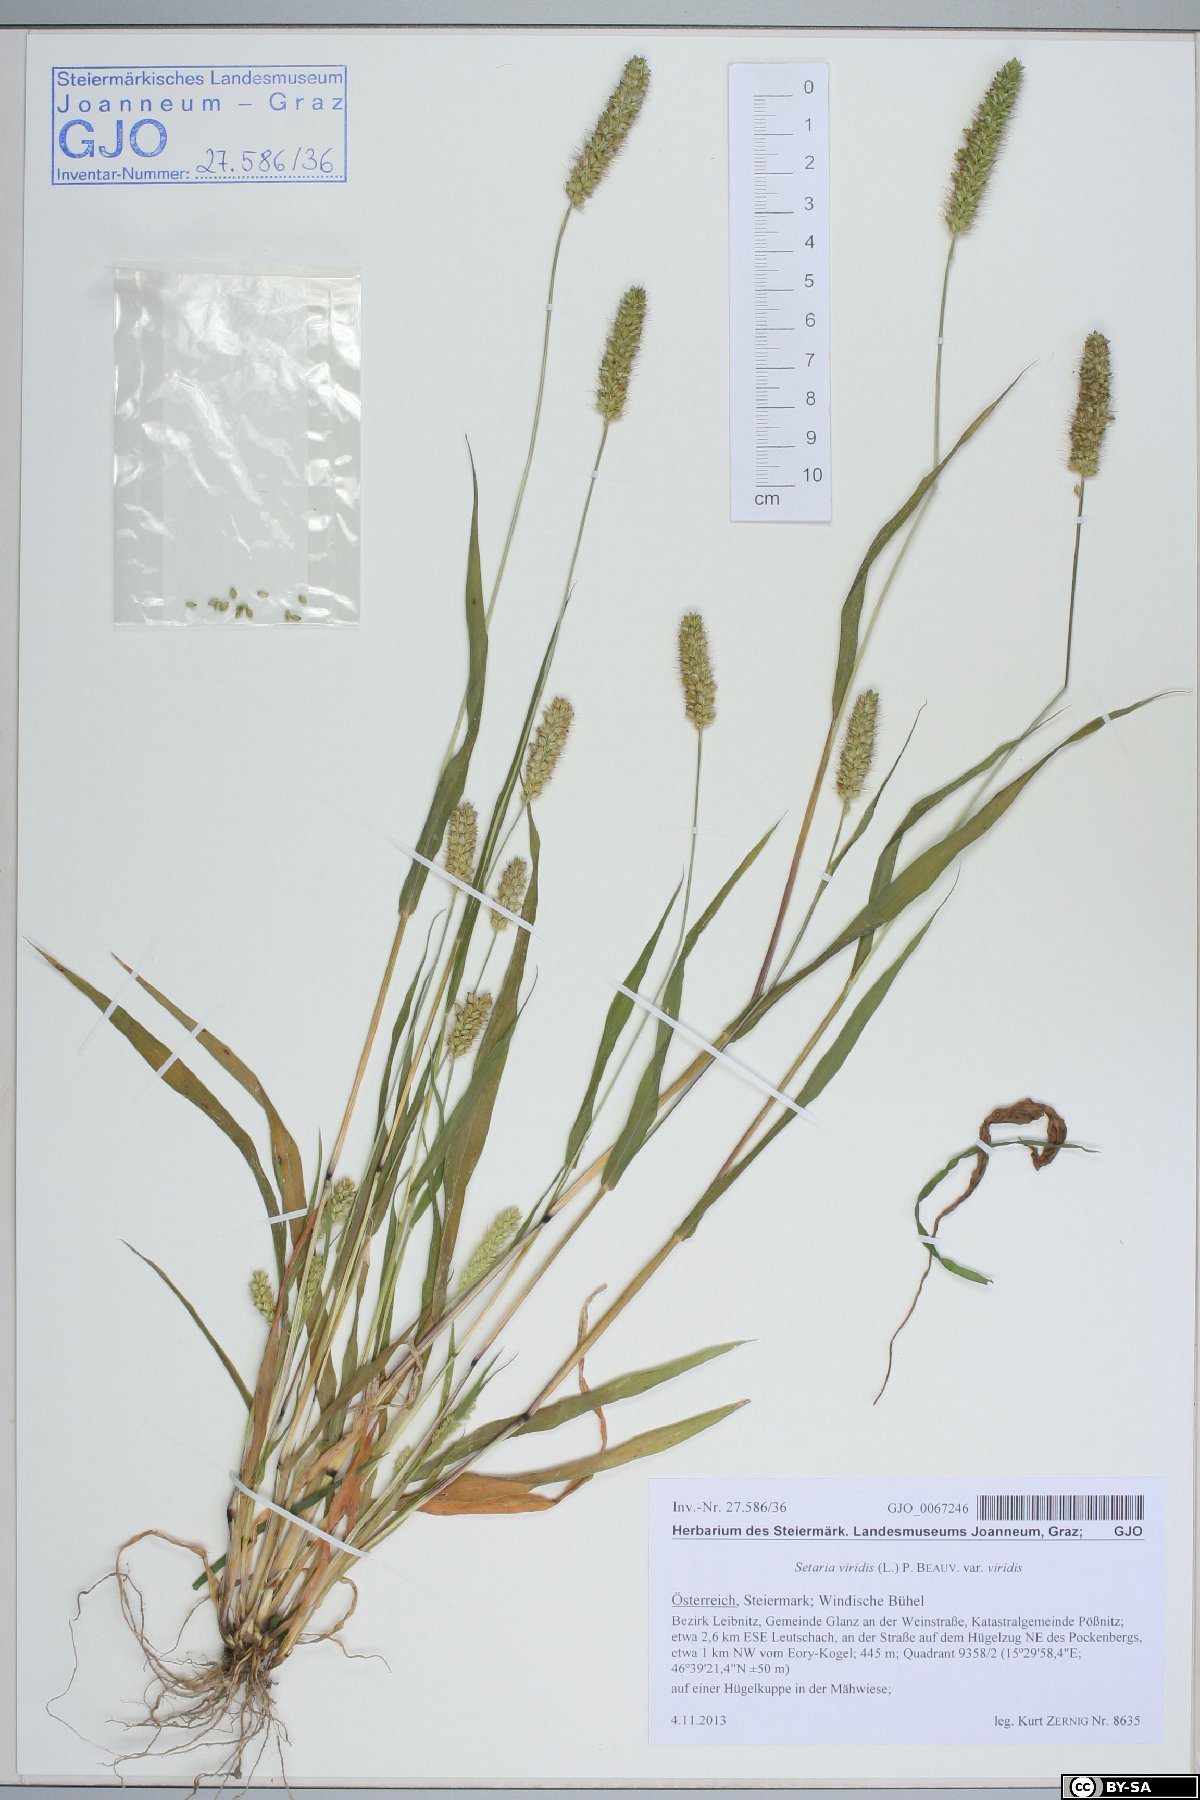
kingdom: Plantae
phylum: Tracheophyta
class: Liliopsida
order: Poales
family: Poaceae
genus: Setaria
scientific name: Setaria viridis
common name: Green bristlegrass
